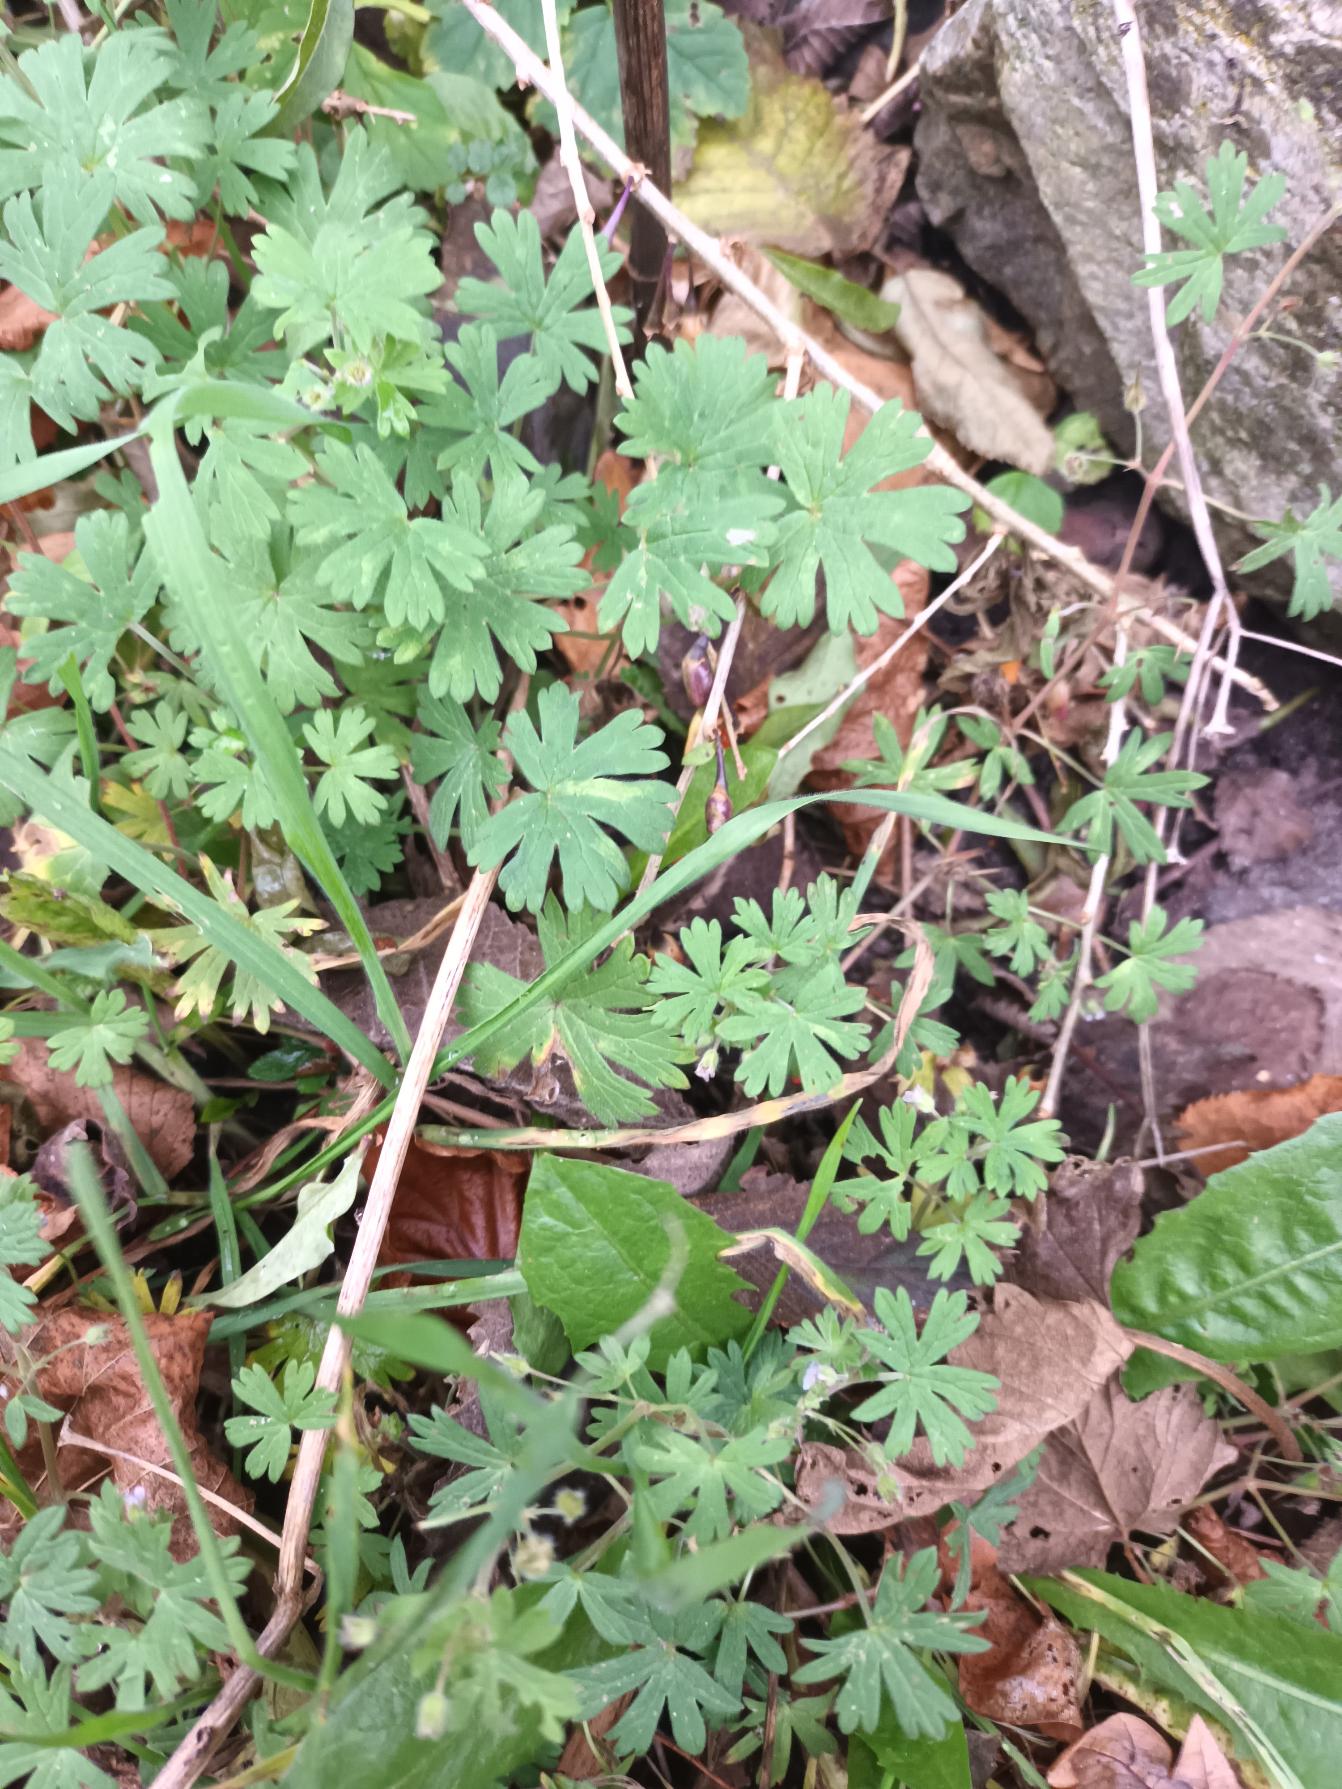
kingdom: Plantae
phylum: Tracheophyta
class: Magnoliopsida
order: Geraniales
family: Geraniaceae
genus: Geranium
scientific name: Geranium pusillum
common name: Liden storkenæb
